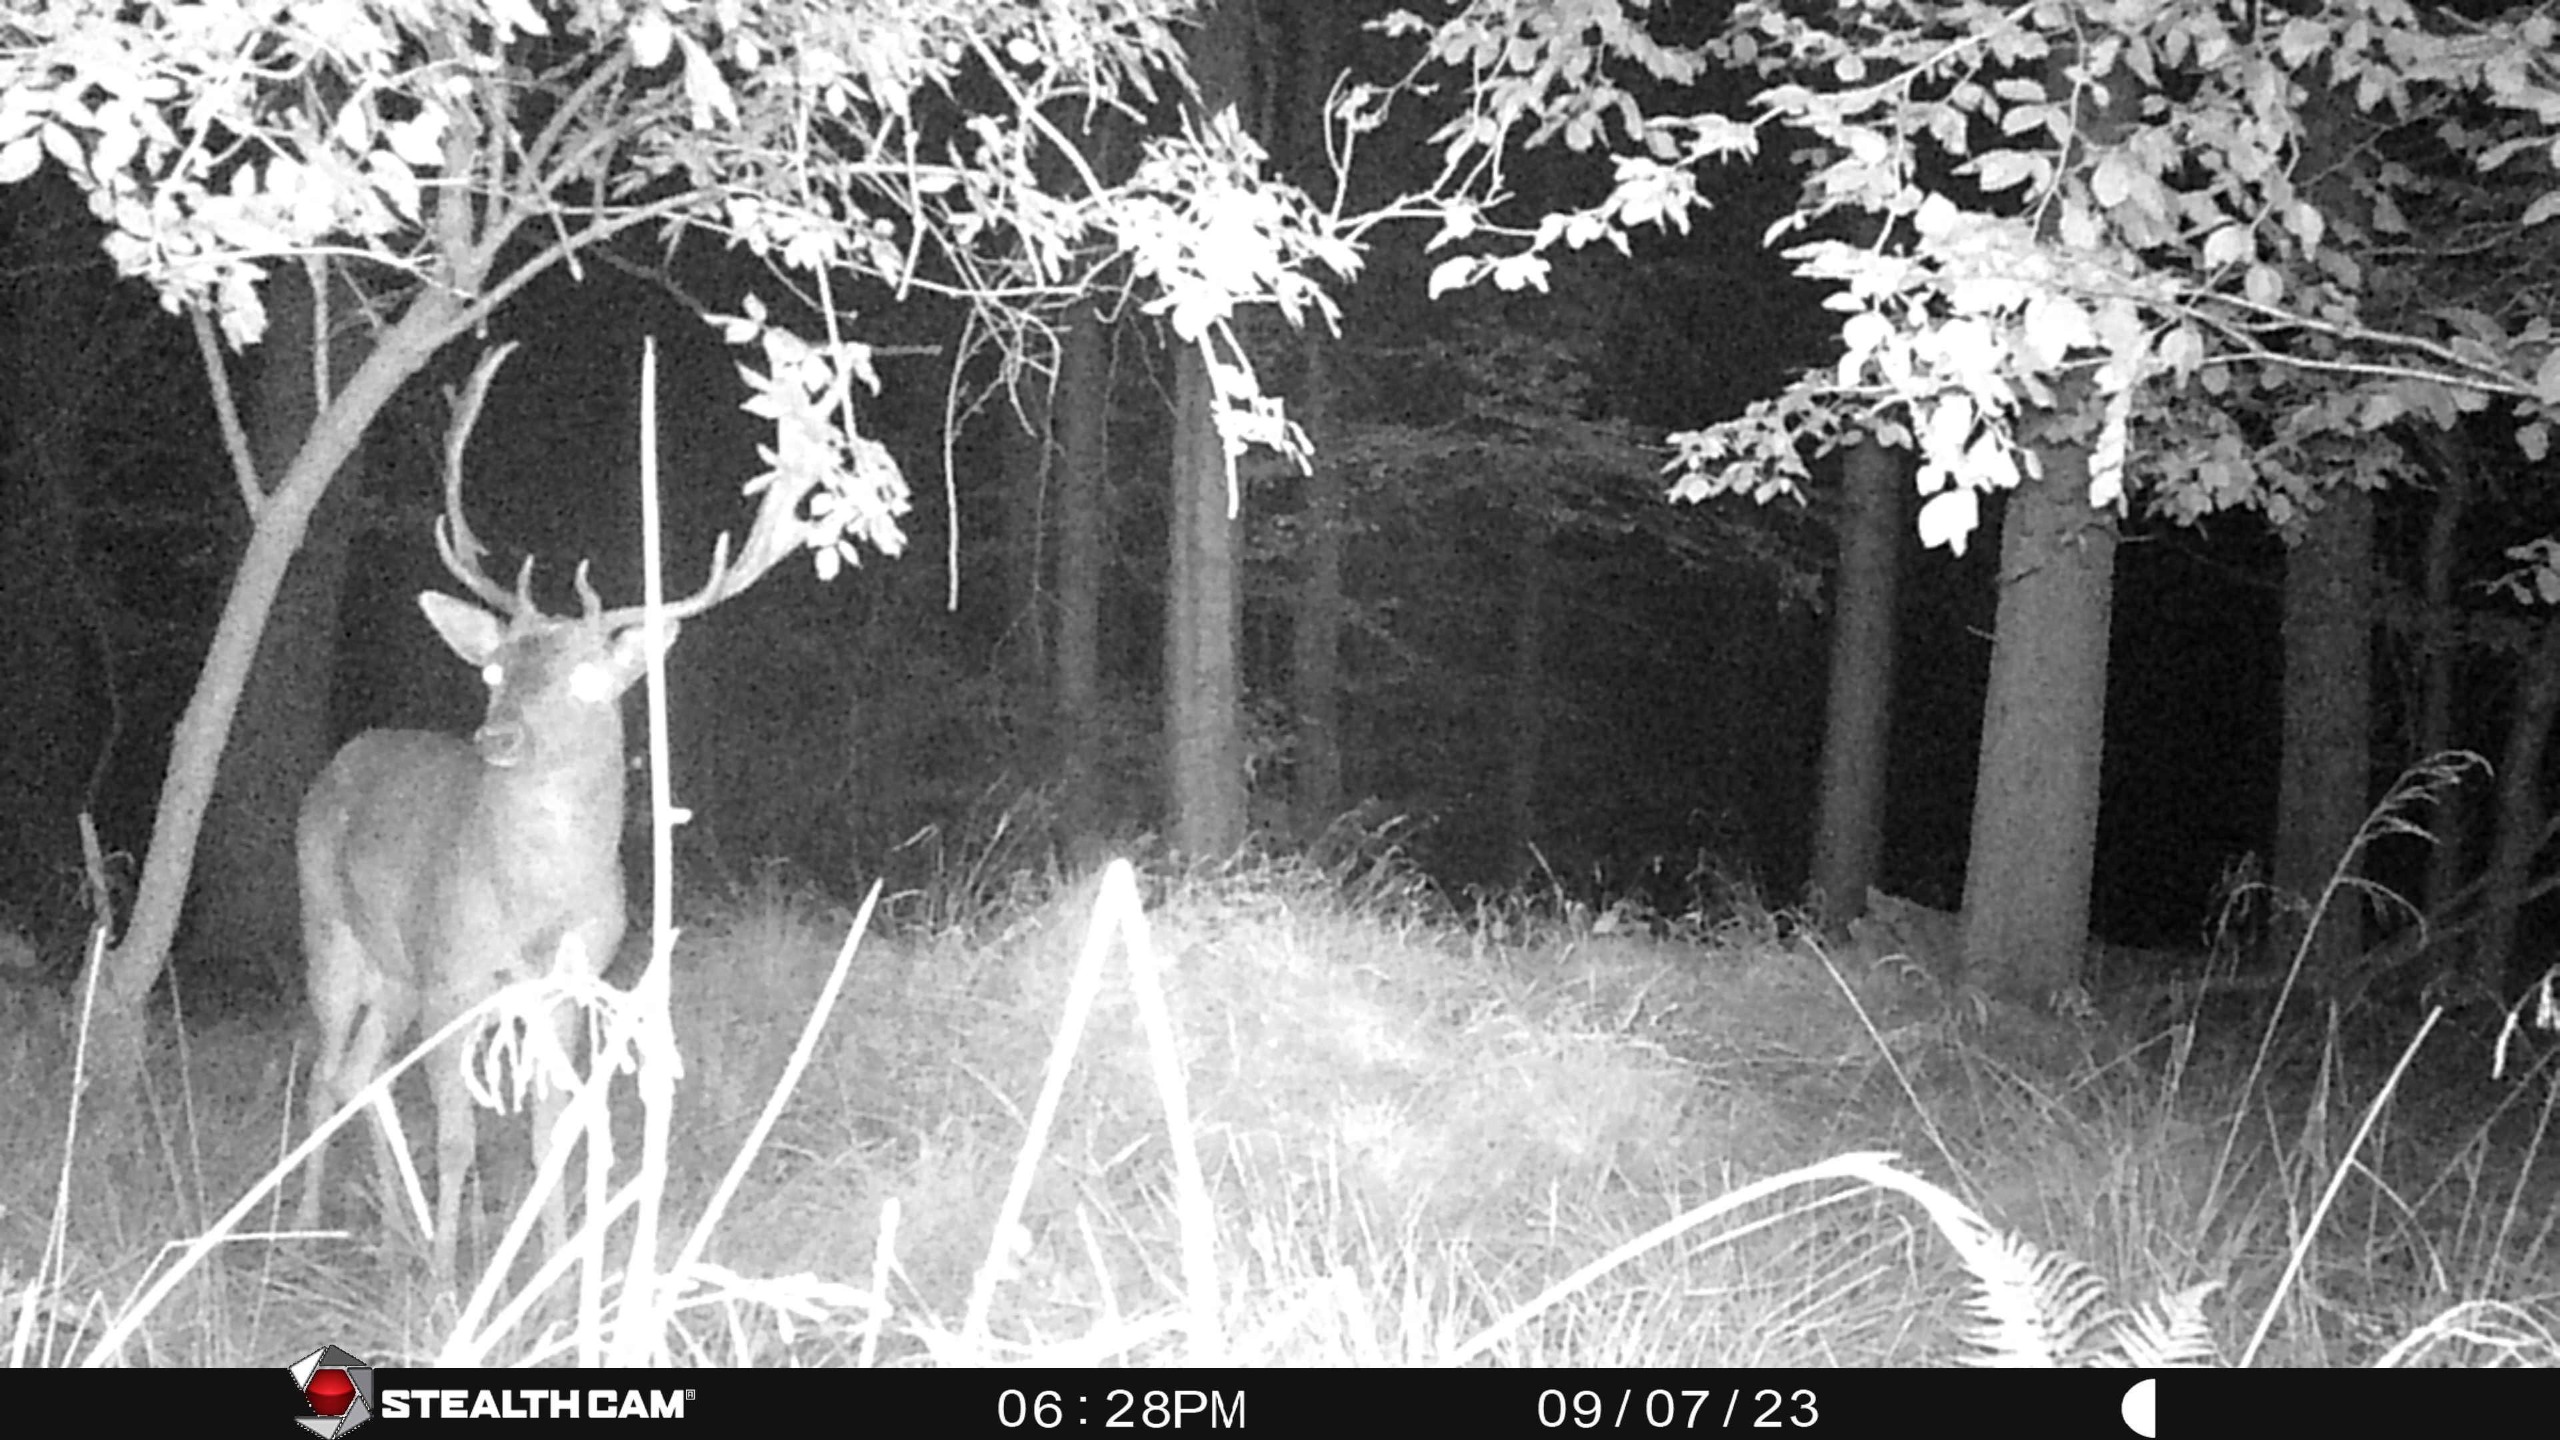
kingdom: Animalia
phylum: Chordata
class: Mammalia
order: Artiodactyla
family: Cervidae
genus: Dama
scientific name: Dama dama
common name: Dådyr
